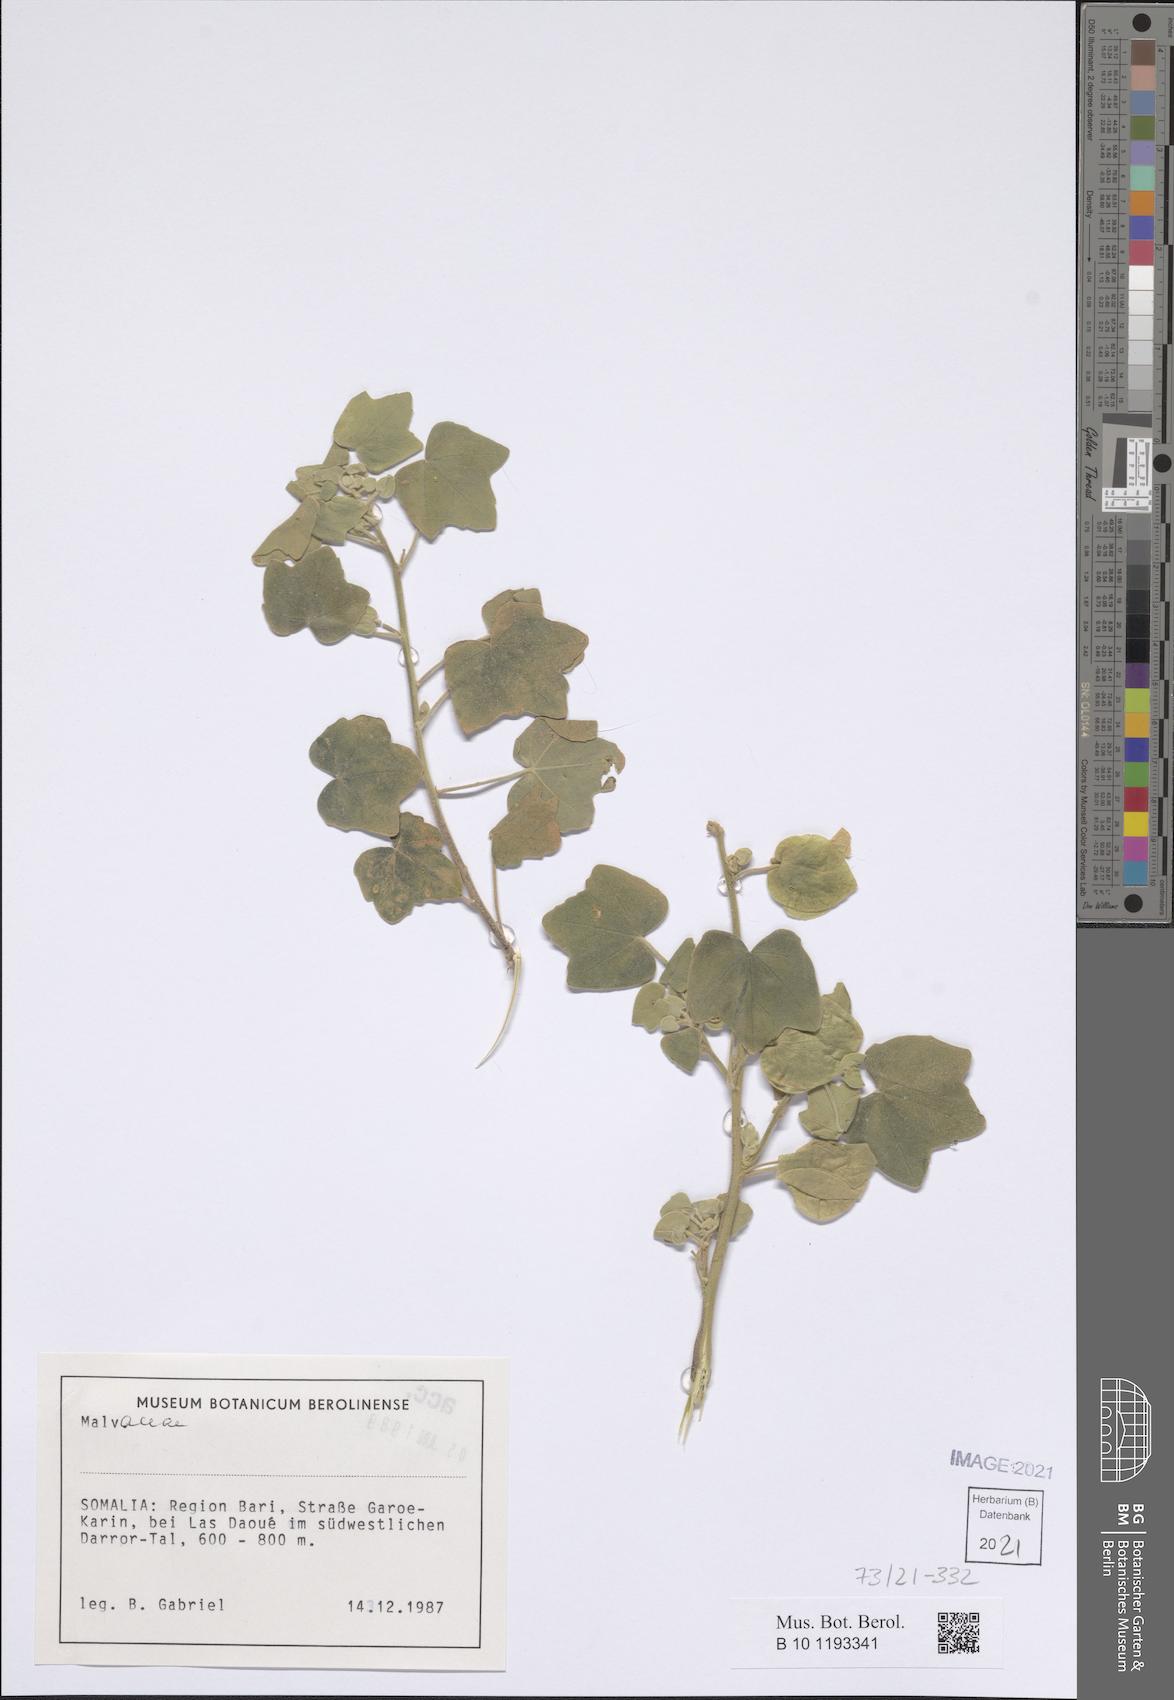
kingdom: Plantae
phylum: Tracheophyta
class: Magnoliopsida
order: Malvales
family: Malvaceae
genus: Senra
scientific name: Senra incana
